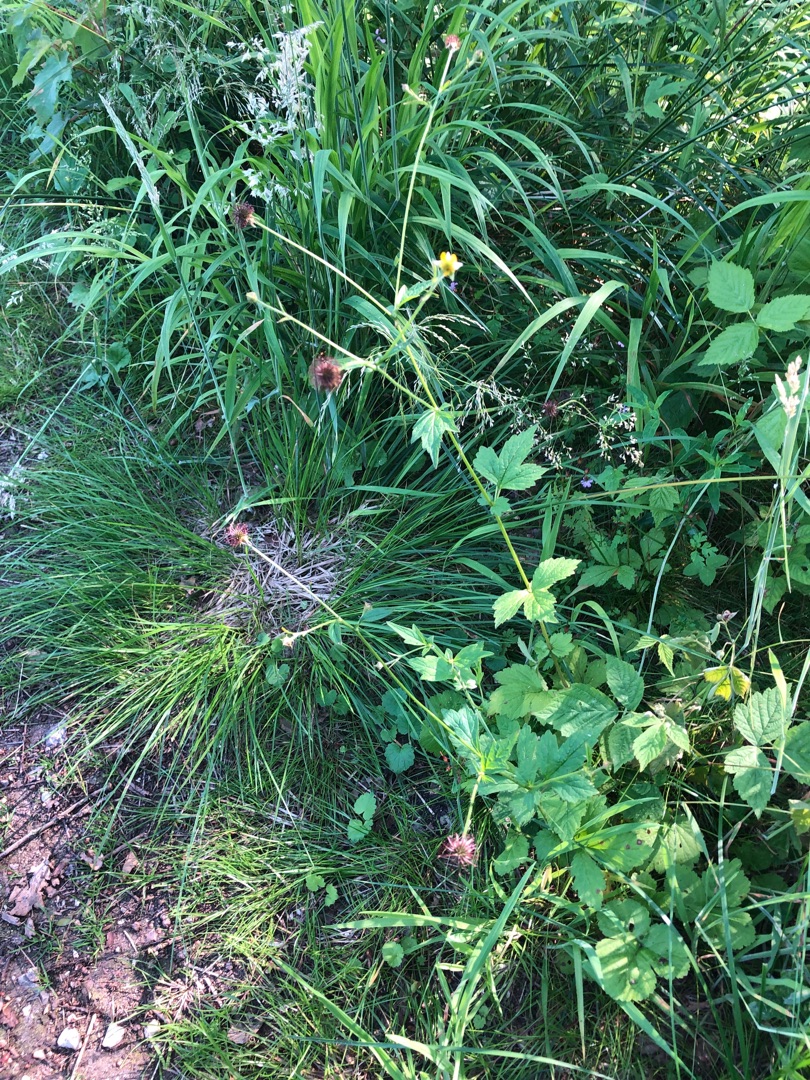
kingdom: Plantae
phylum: Tracheophyta
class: Magnoliopsida
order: Rosales
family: Rosaceae
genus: Geum
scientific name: Geum urbanum
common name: Feber-nellikerod
